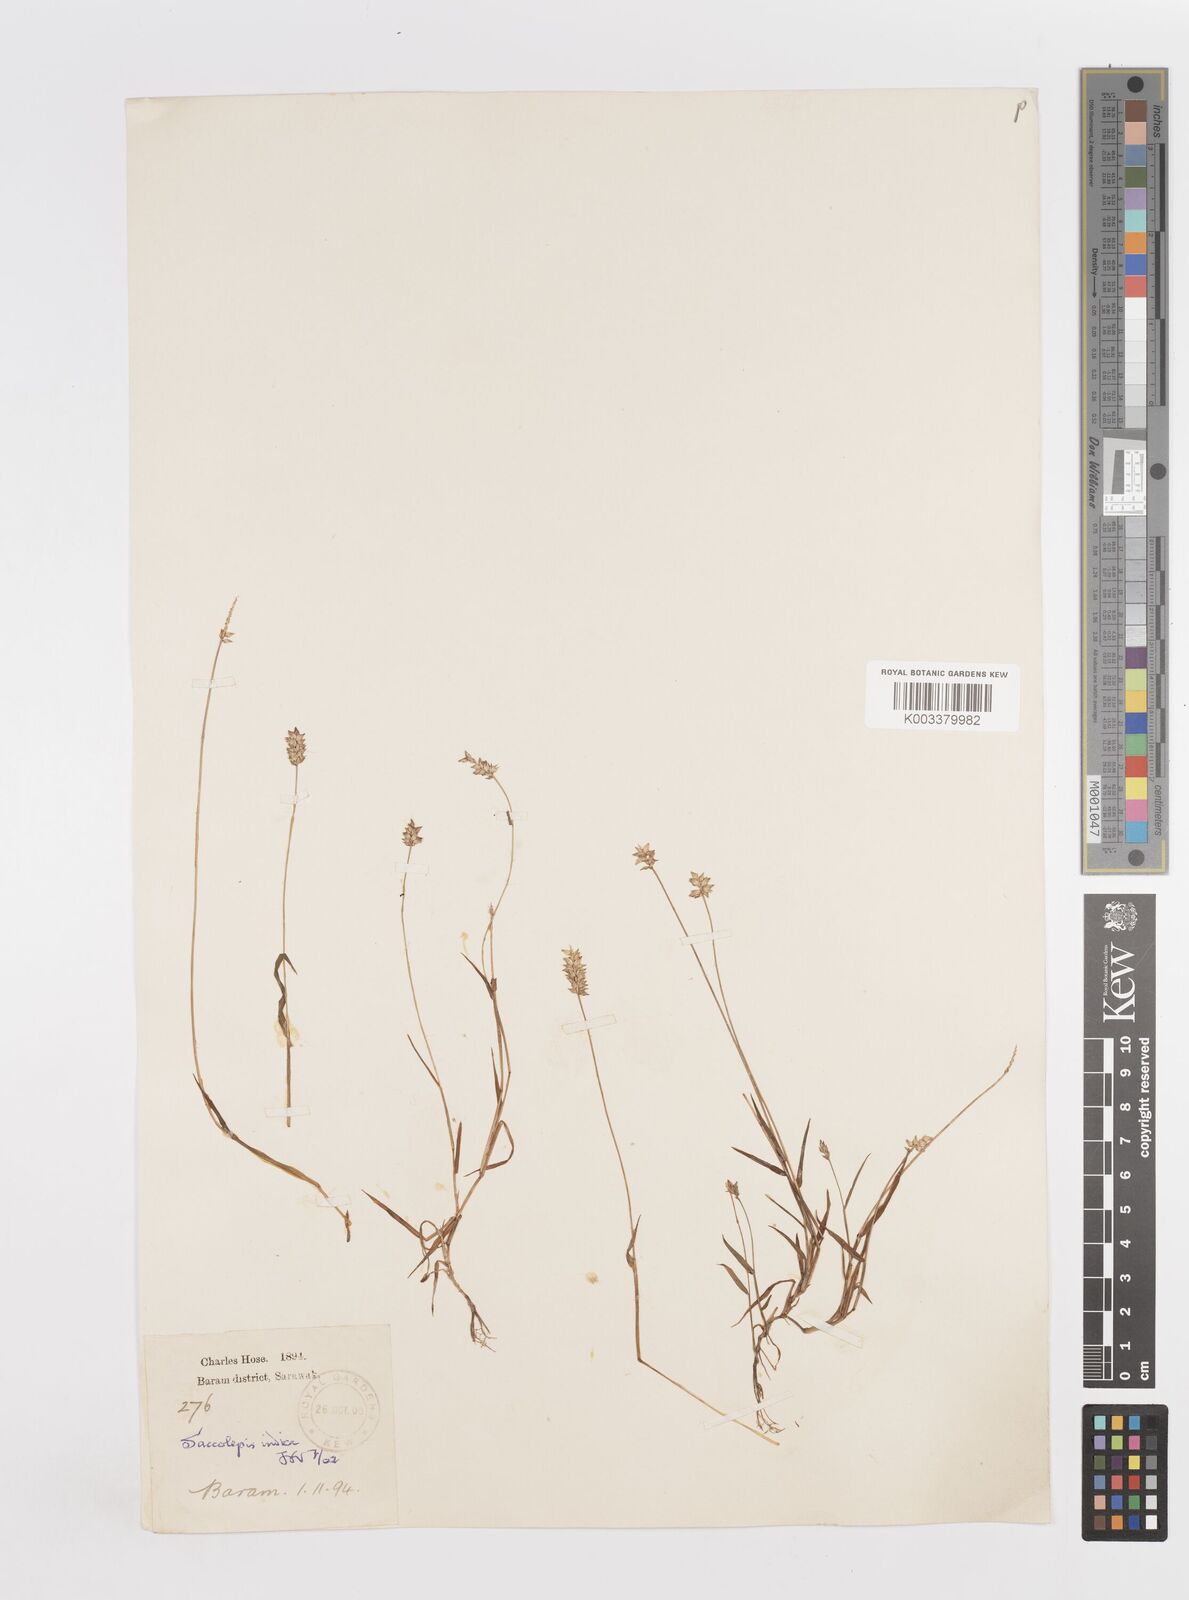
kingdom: Plantae
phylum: Tracheophyta
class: Liliopsida
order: Poales
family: Poaceae
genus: Sacciolepis
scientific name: Sacciolepis indica
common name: Glenwoodgrass
